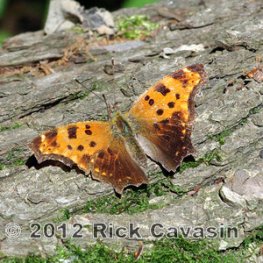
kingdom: Animalia
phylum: Arthropoda
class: Insecta
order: Lepidoptera
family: Nymphalidae
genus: Polygonia
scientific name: Polygonia comma
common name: Eastern Comma
